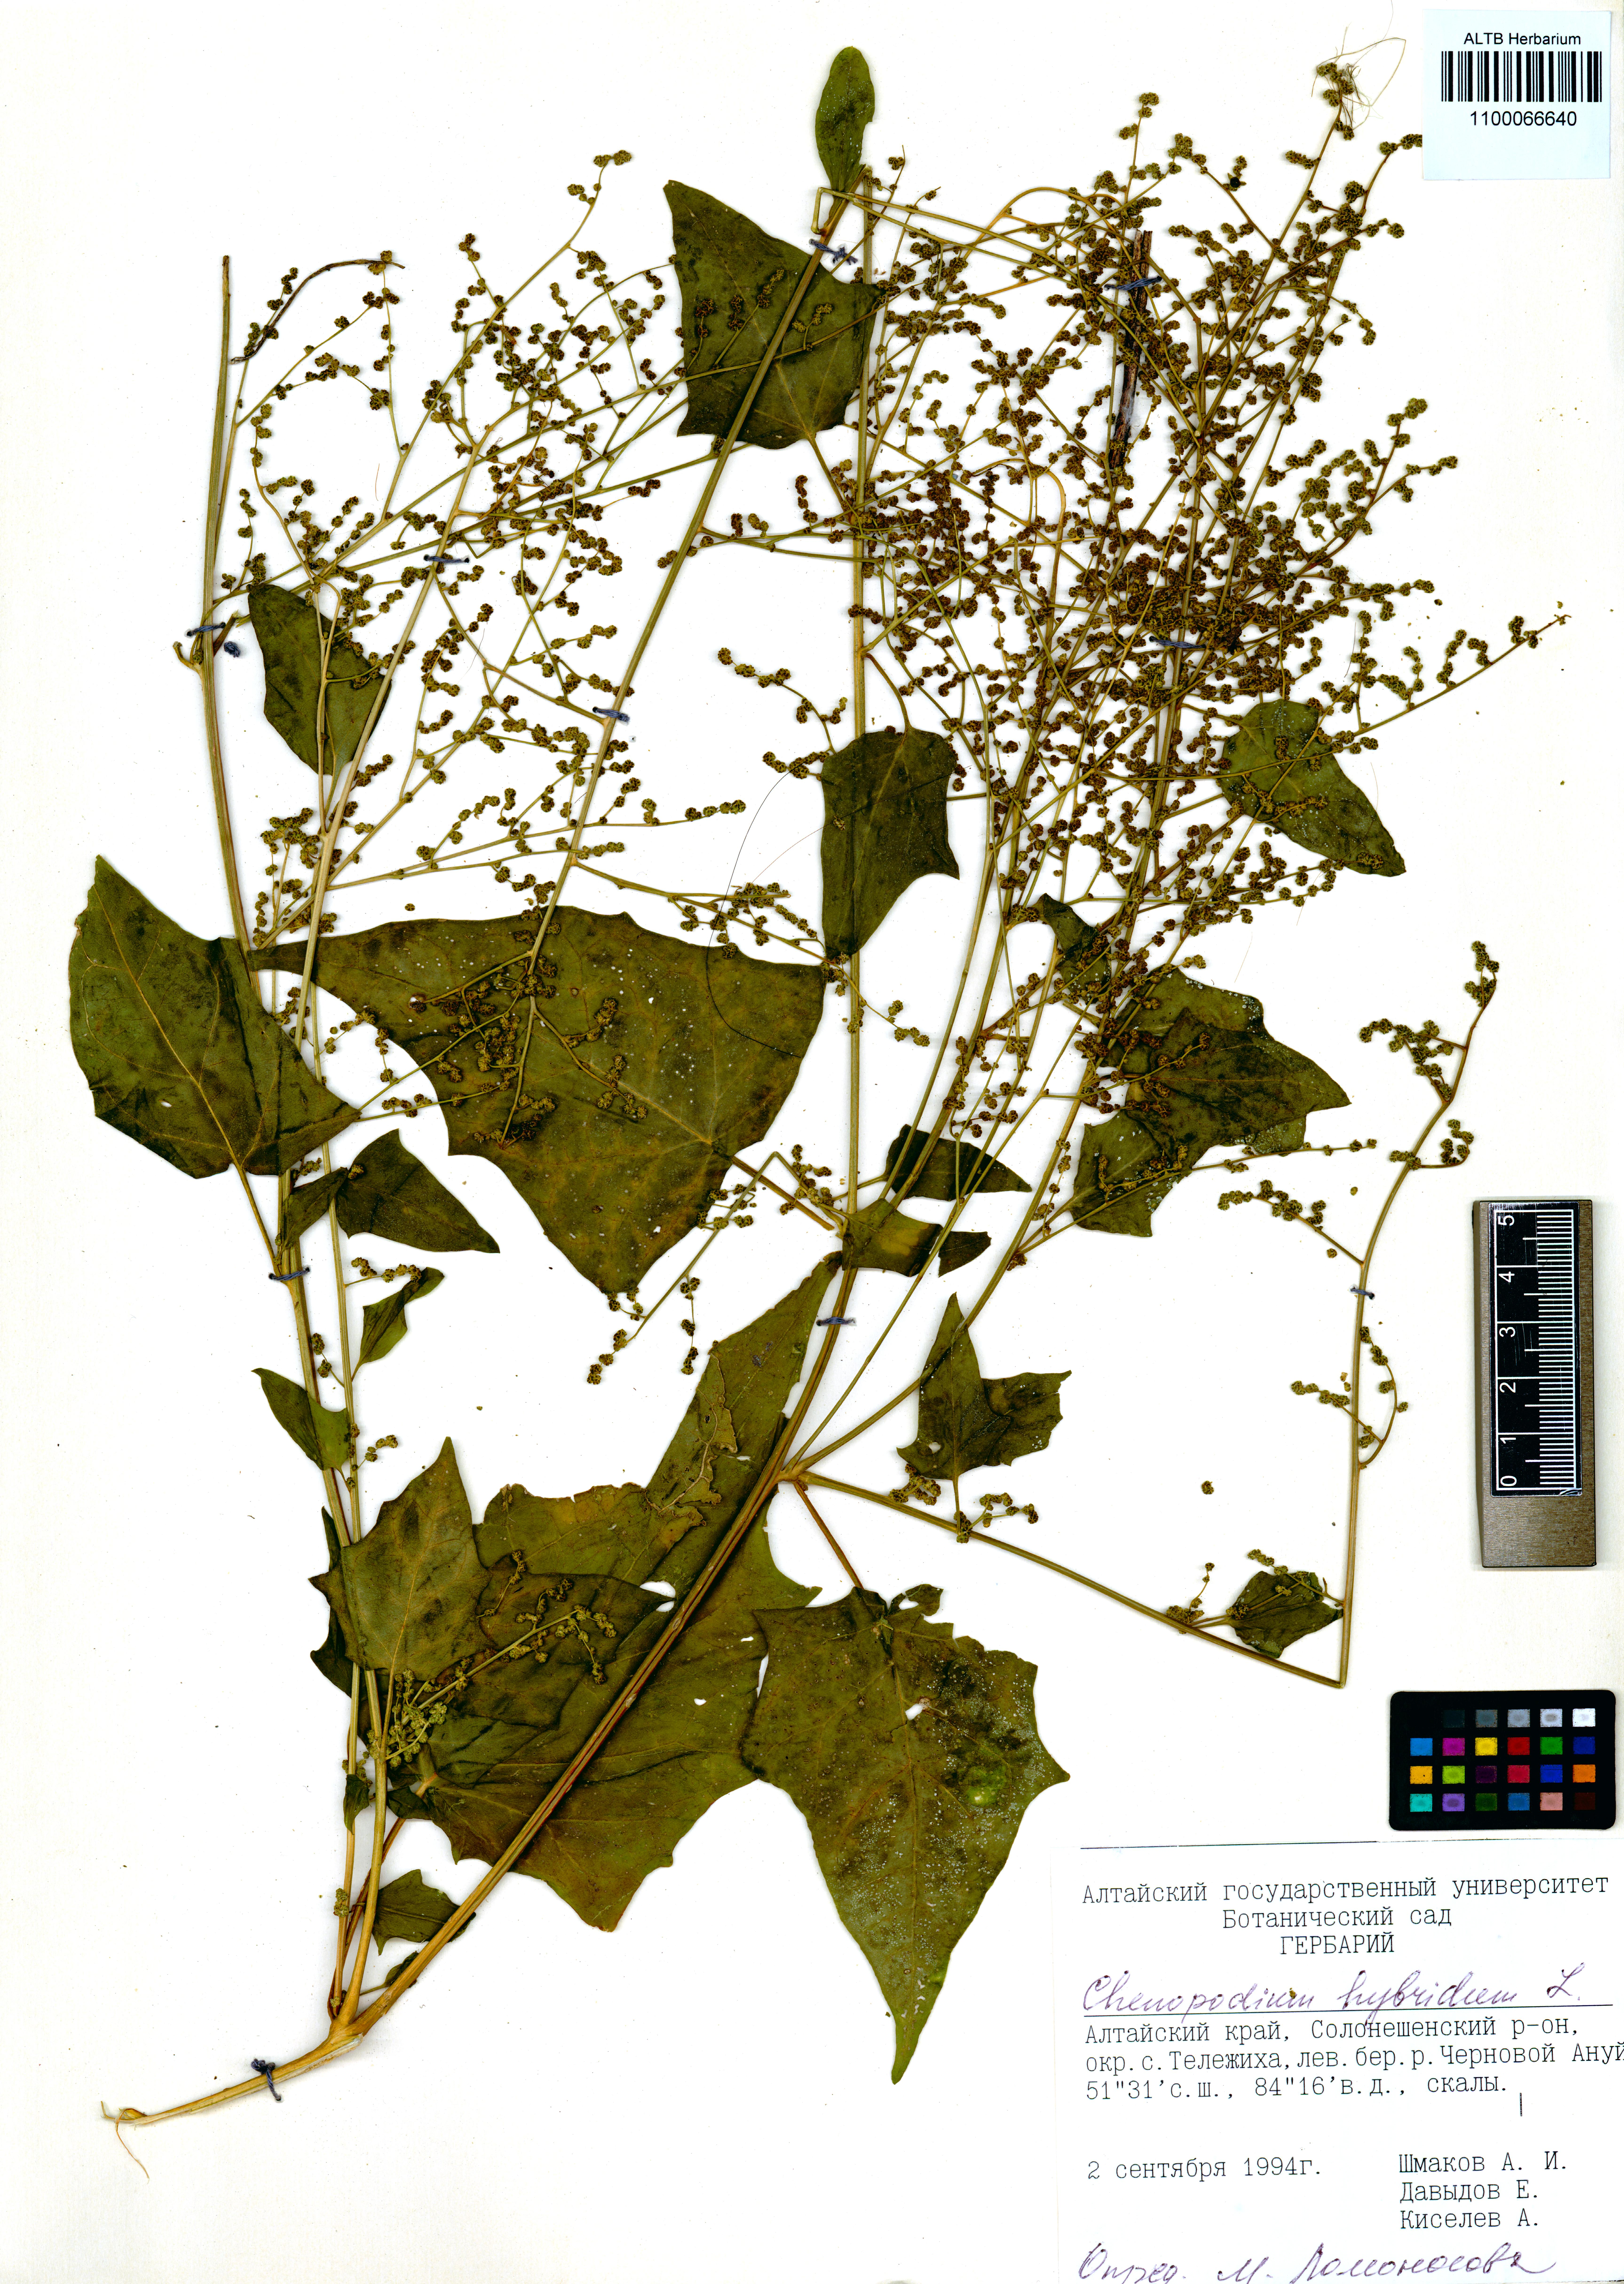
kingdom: Plantae
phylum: Tracheophyta
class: Magnoliopsida
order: Caryophyllales
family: Amaranthaceae
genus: Chenopodiastrum
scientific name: Chenopodiastrum hybridum
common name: Mapleleaf goosefoot
